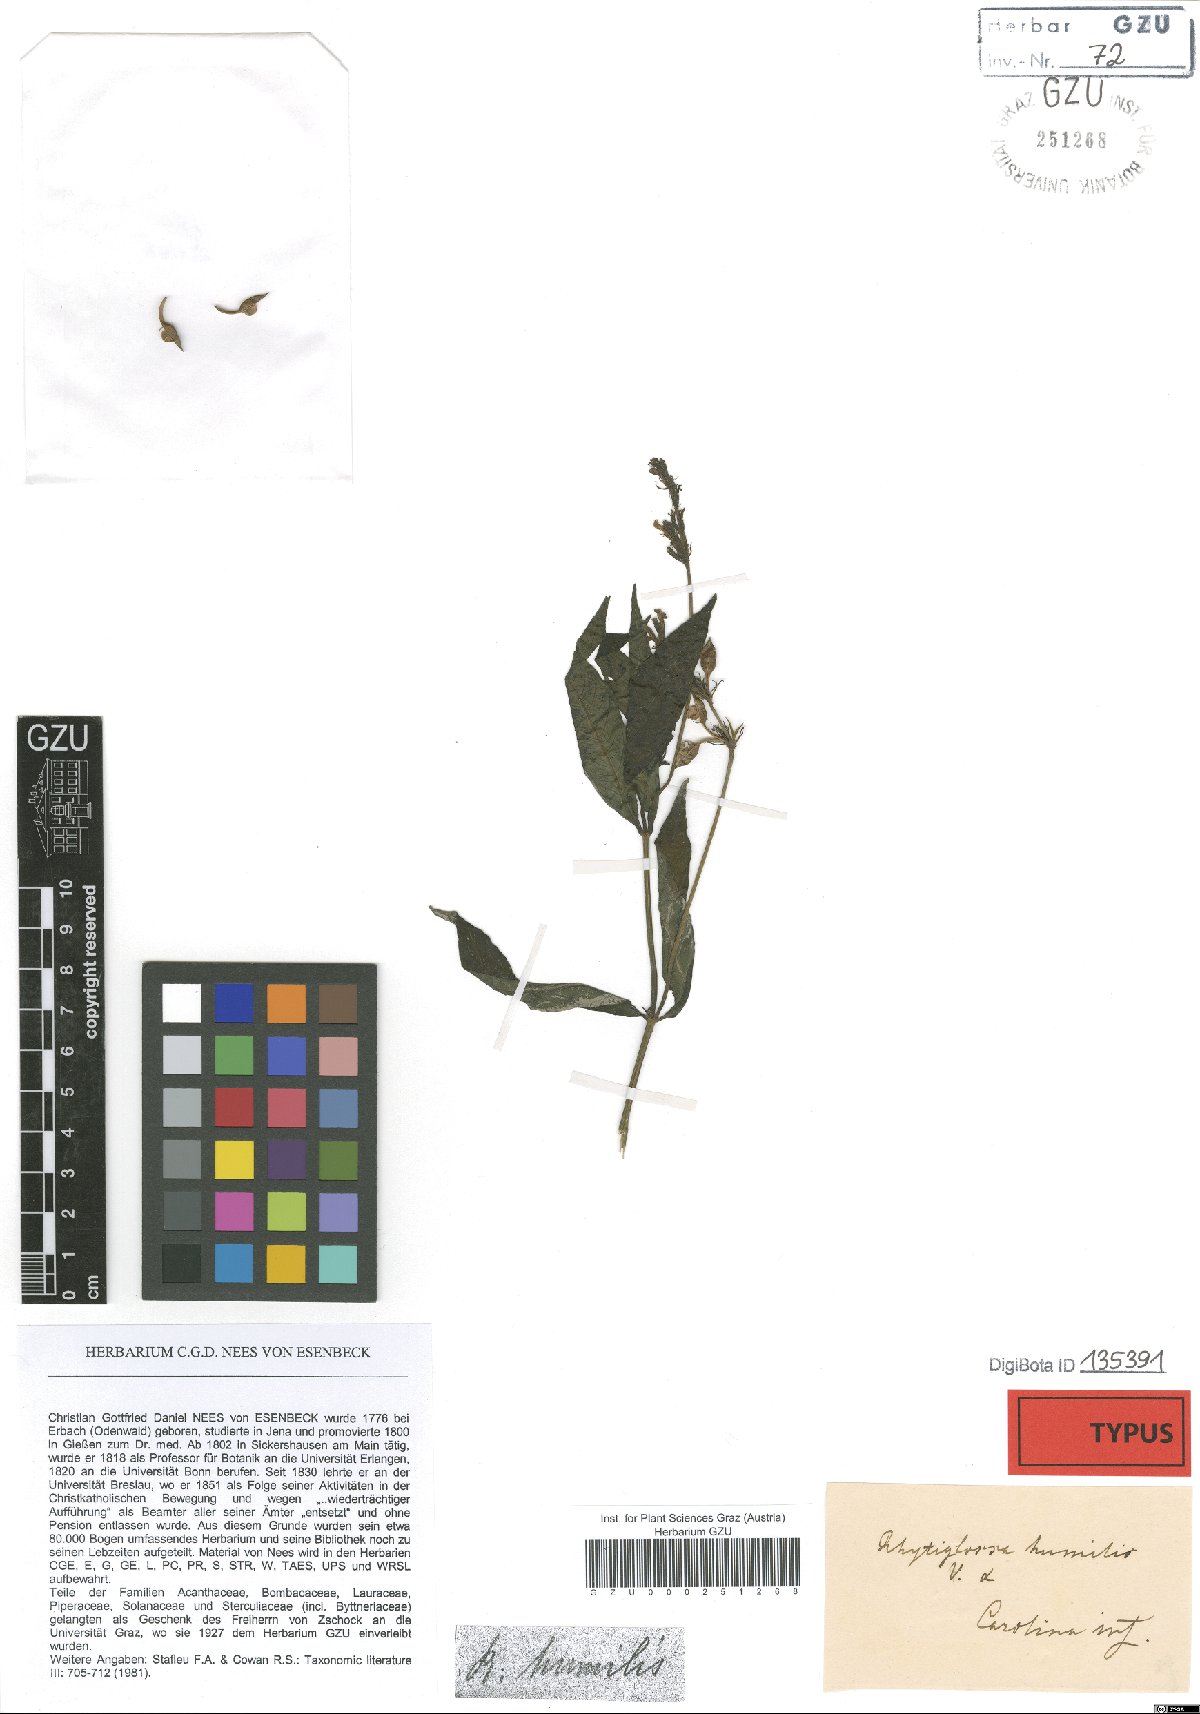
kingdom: Plantae
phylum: Tracheophyta
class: Magnoliopsida
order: Lamiales
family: Acanthaceae
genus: Dianthera
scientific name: Dianthera ovata
